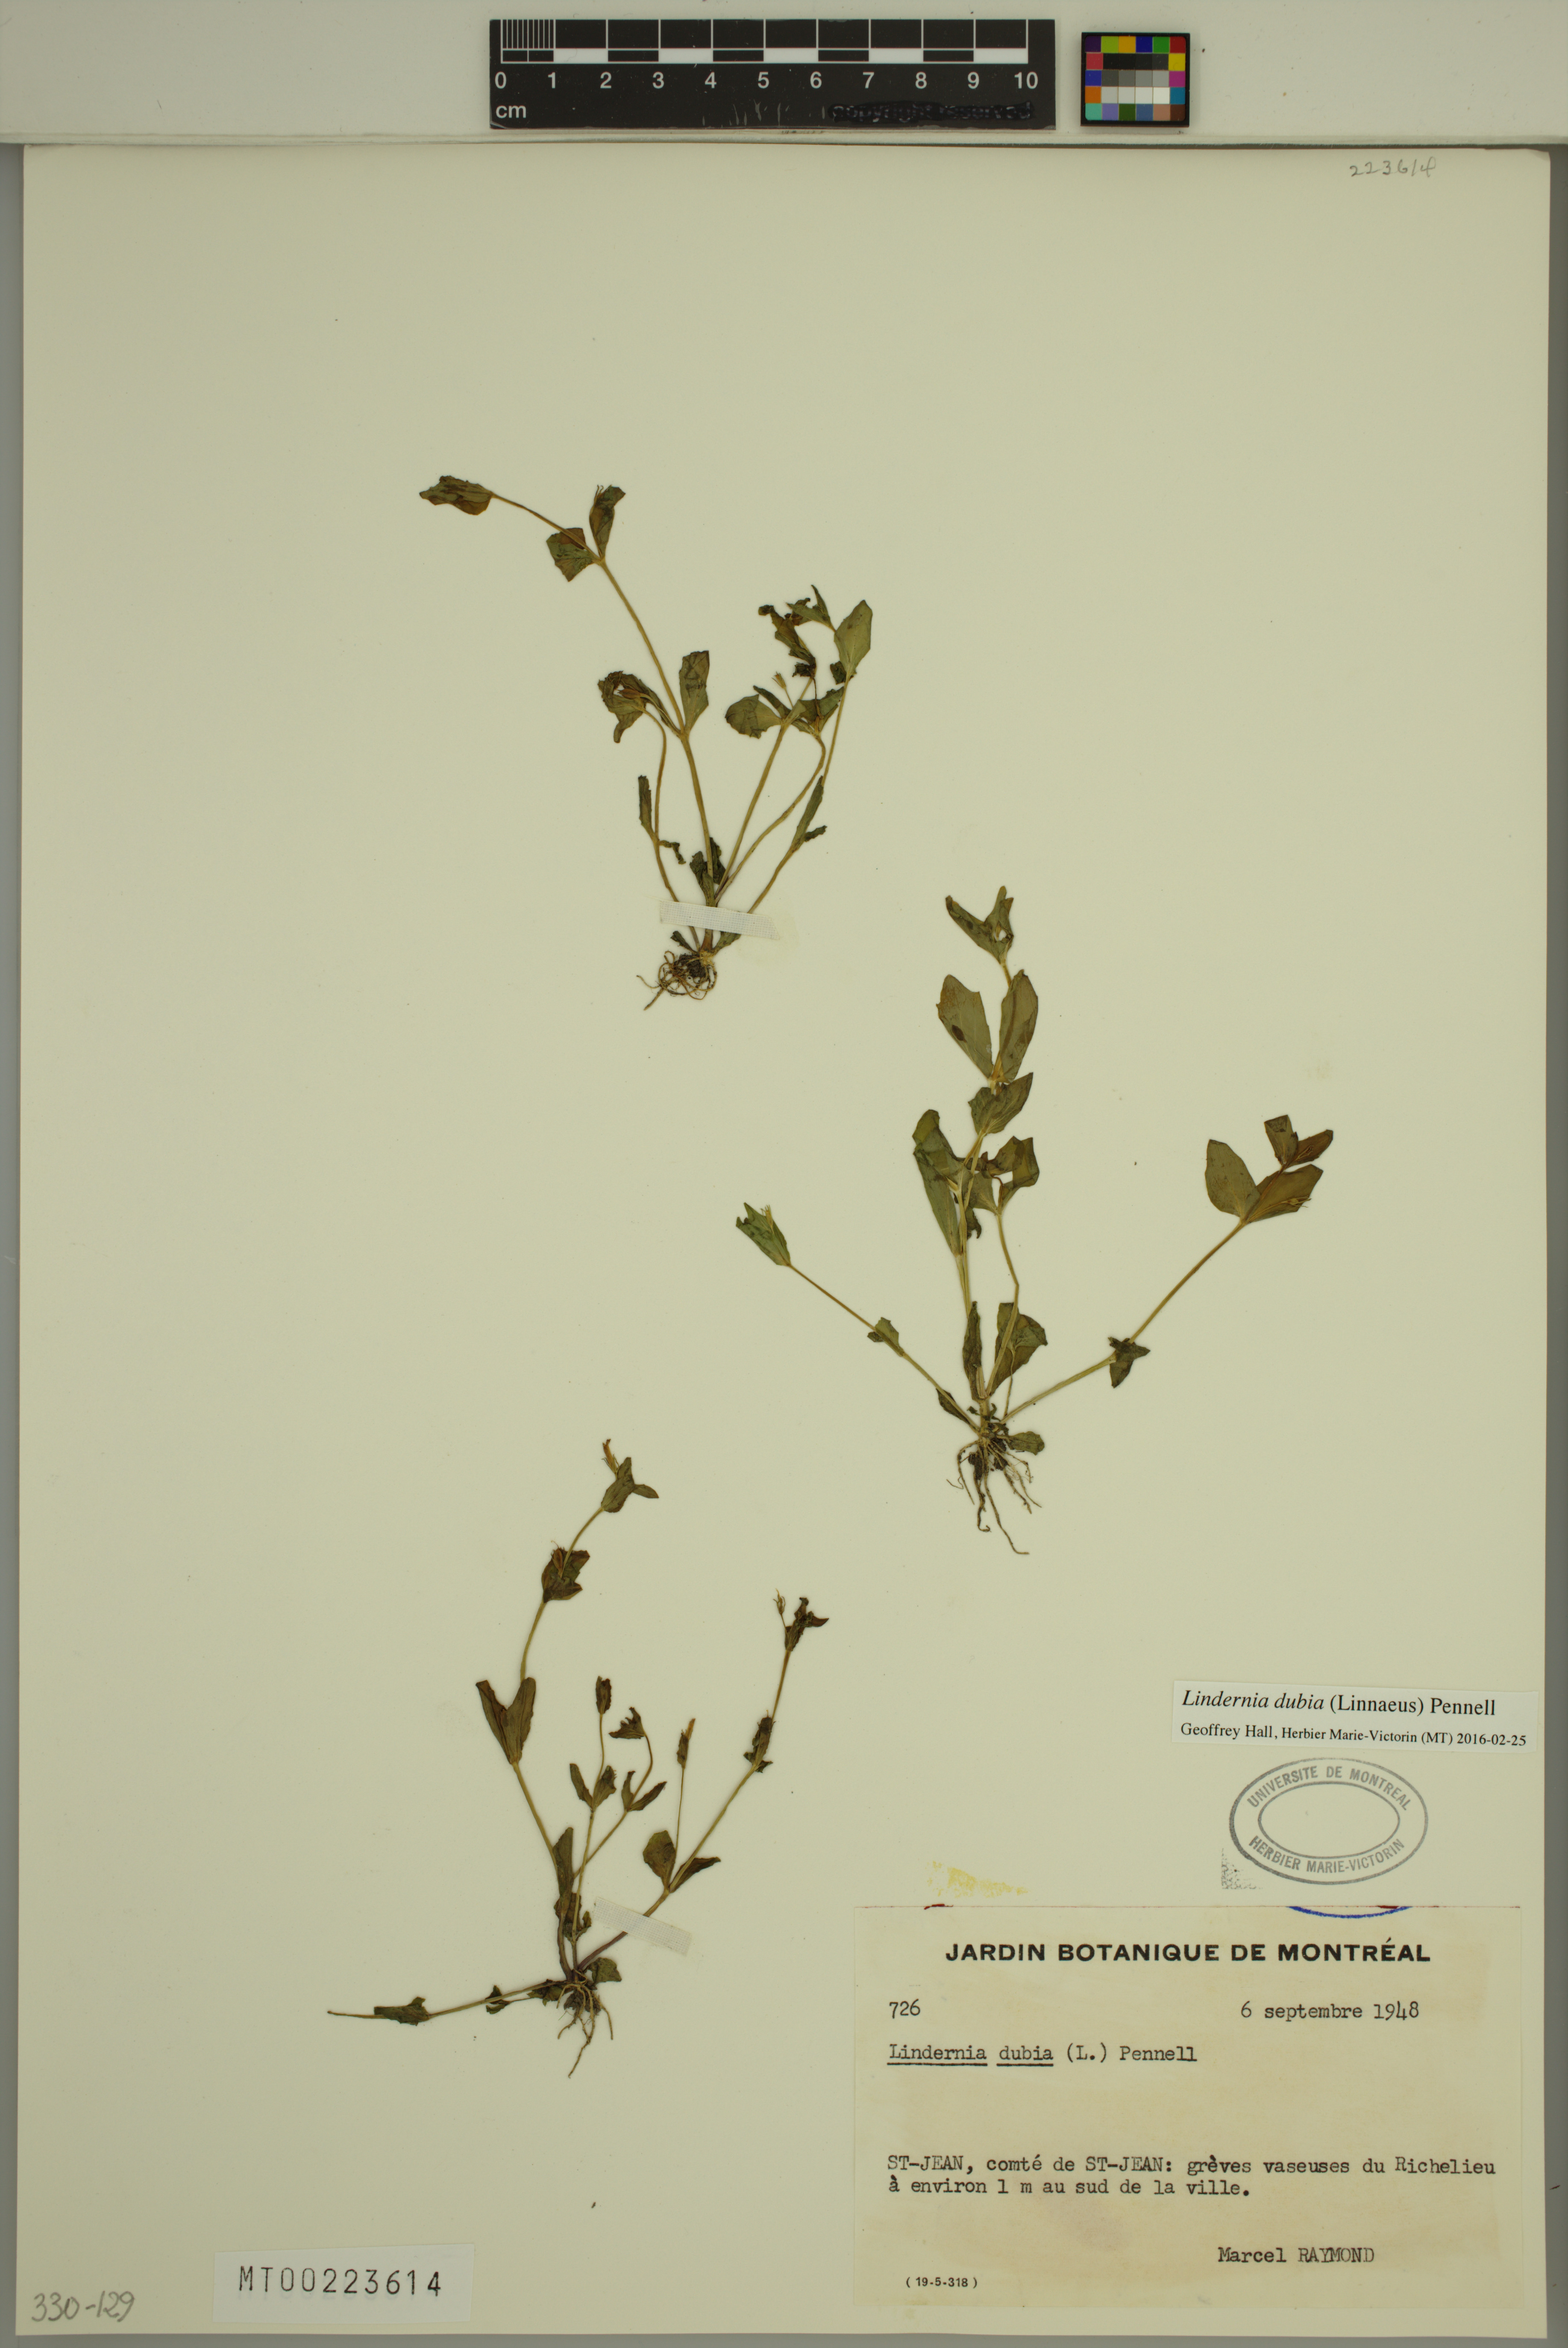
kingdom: Plantae
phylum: Tracheophyta
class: Magnoliopsida
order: Lamiales
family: Linderniaceae
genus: Lindernia
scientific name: Lindernia dubia
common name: Annual false pimpernel
